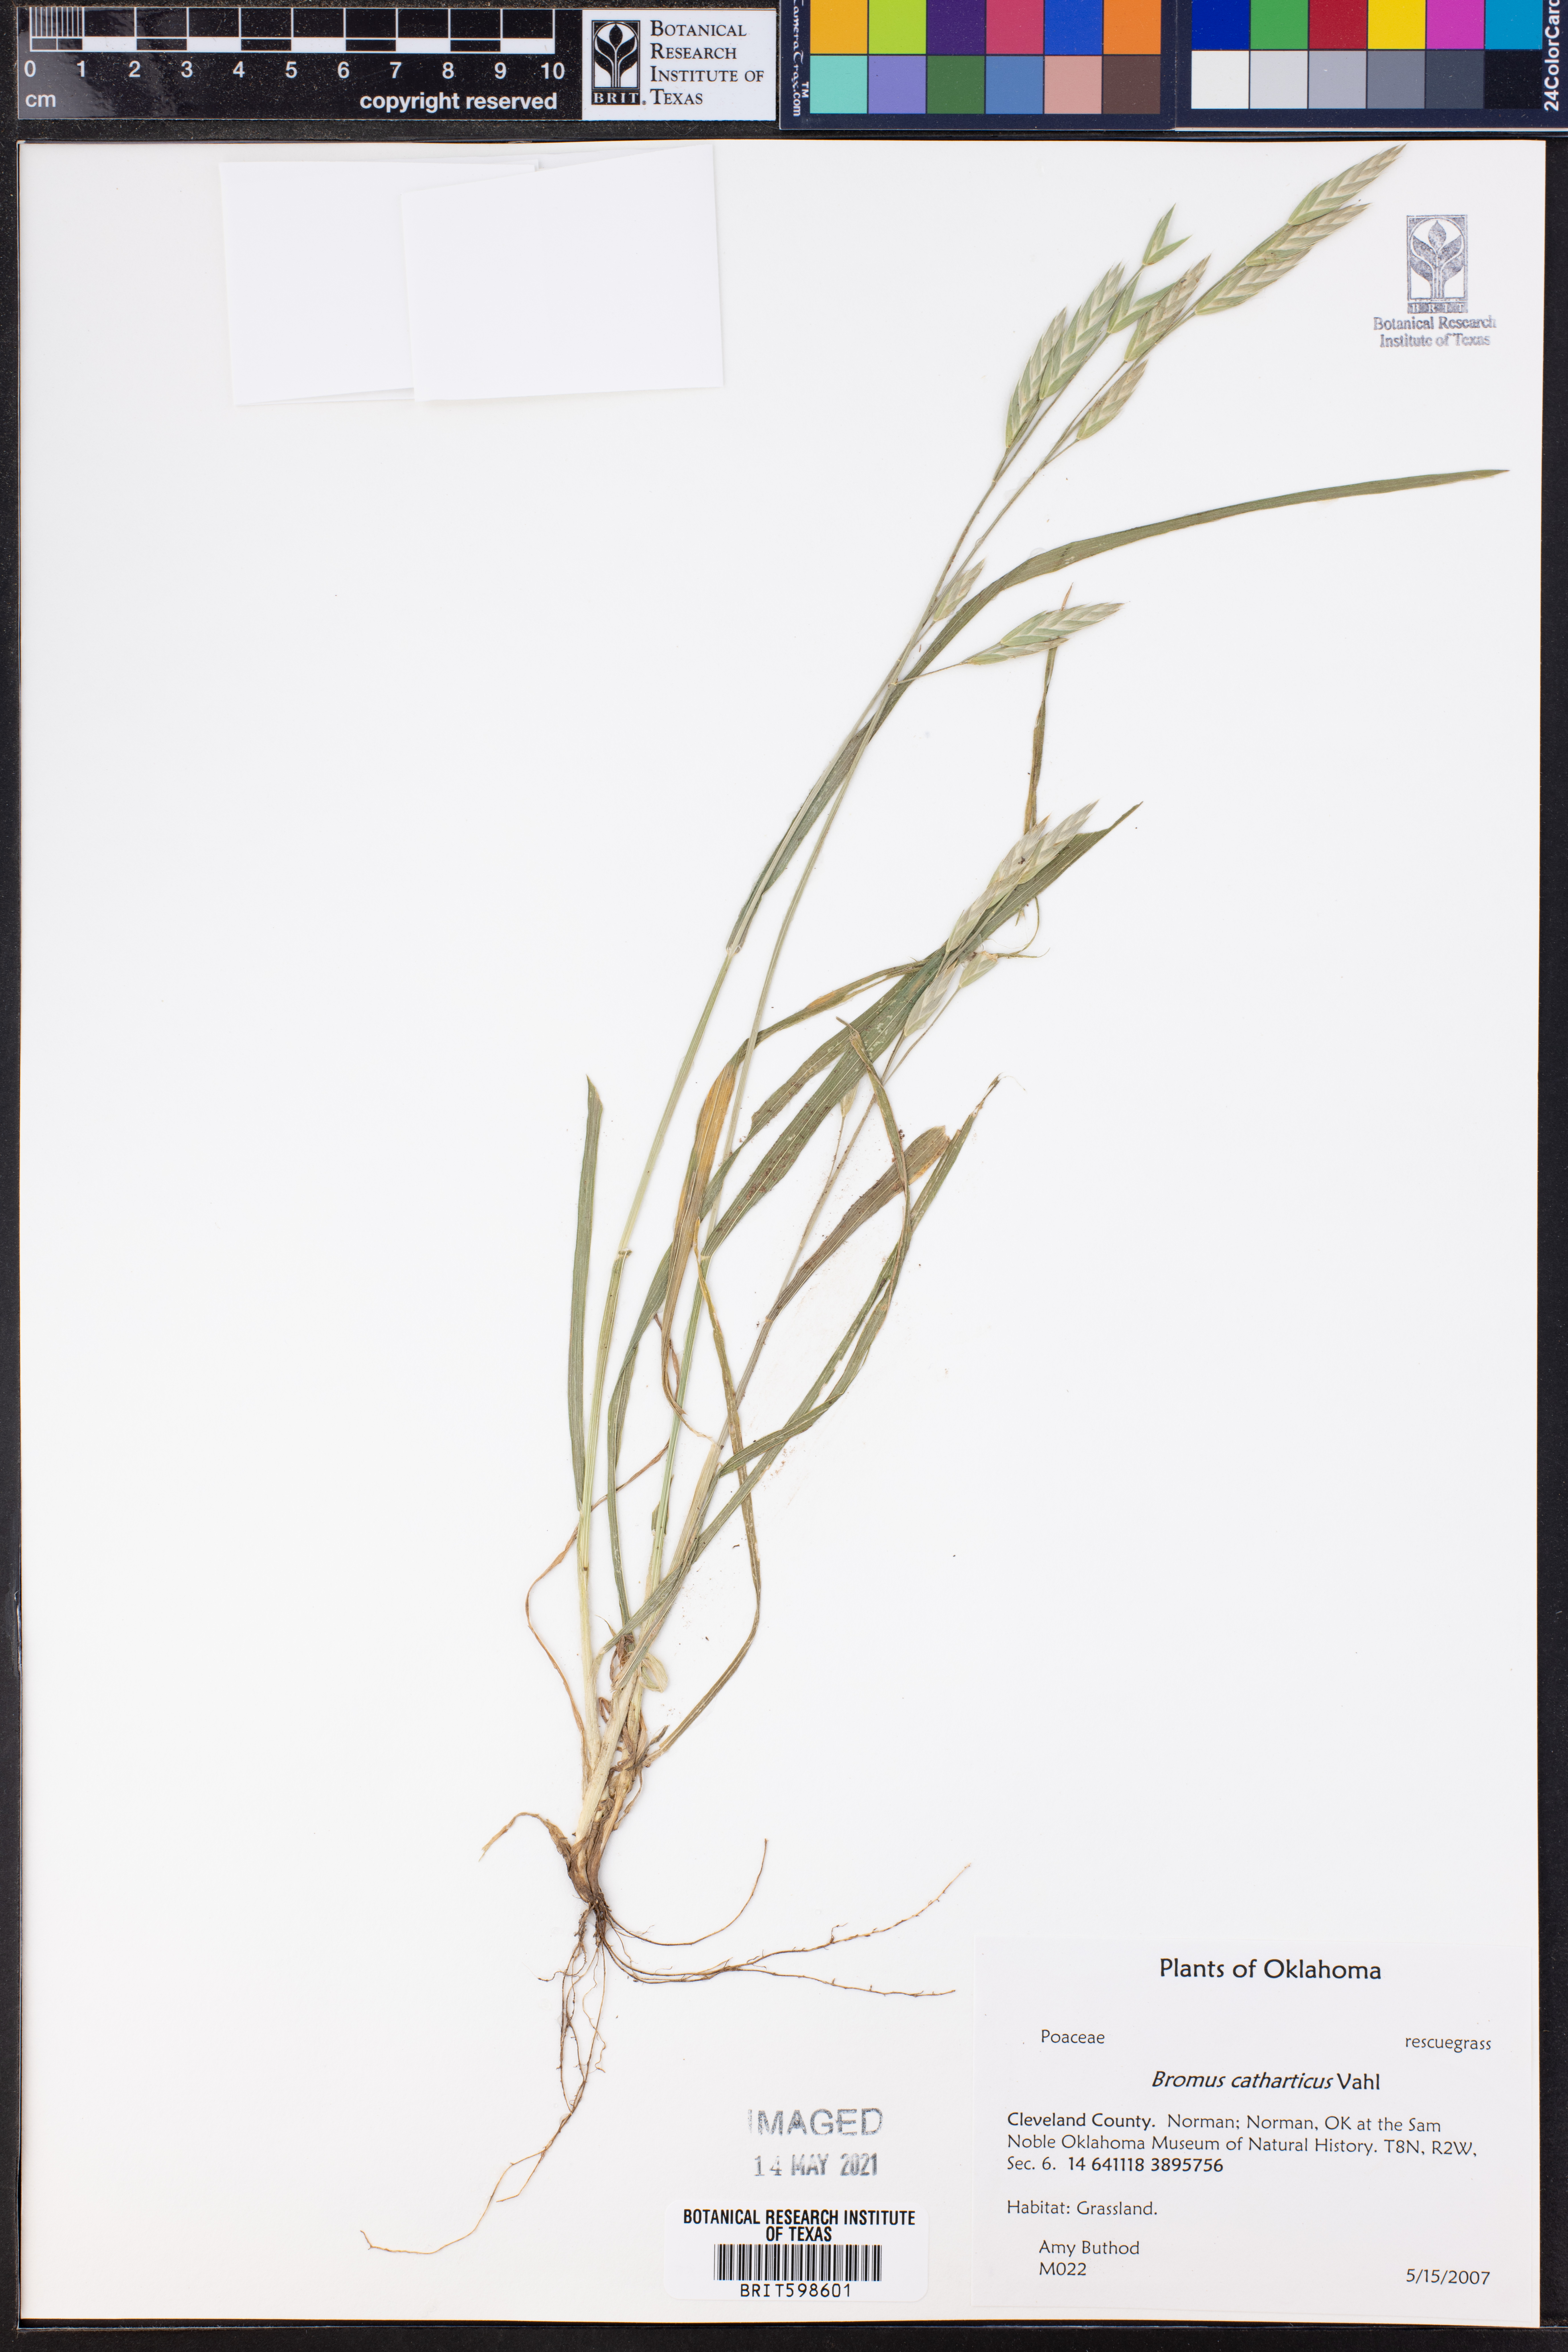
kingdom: Plantae
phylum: Tracheophyta
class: Liliopsida
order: Poales
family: Poaceae
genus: Bromus
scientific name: Bromus catharticus
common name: Rescuegrass
